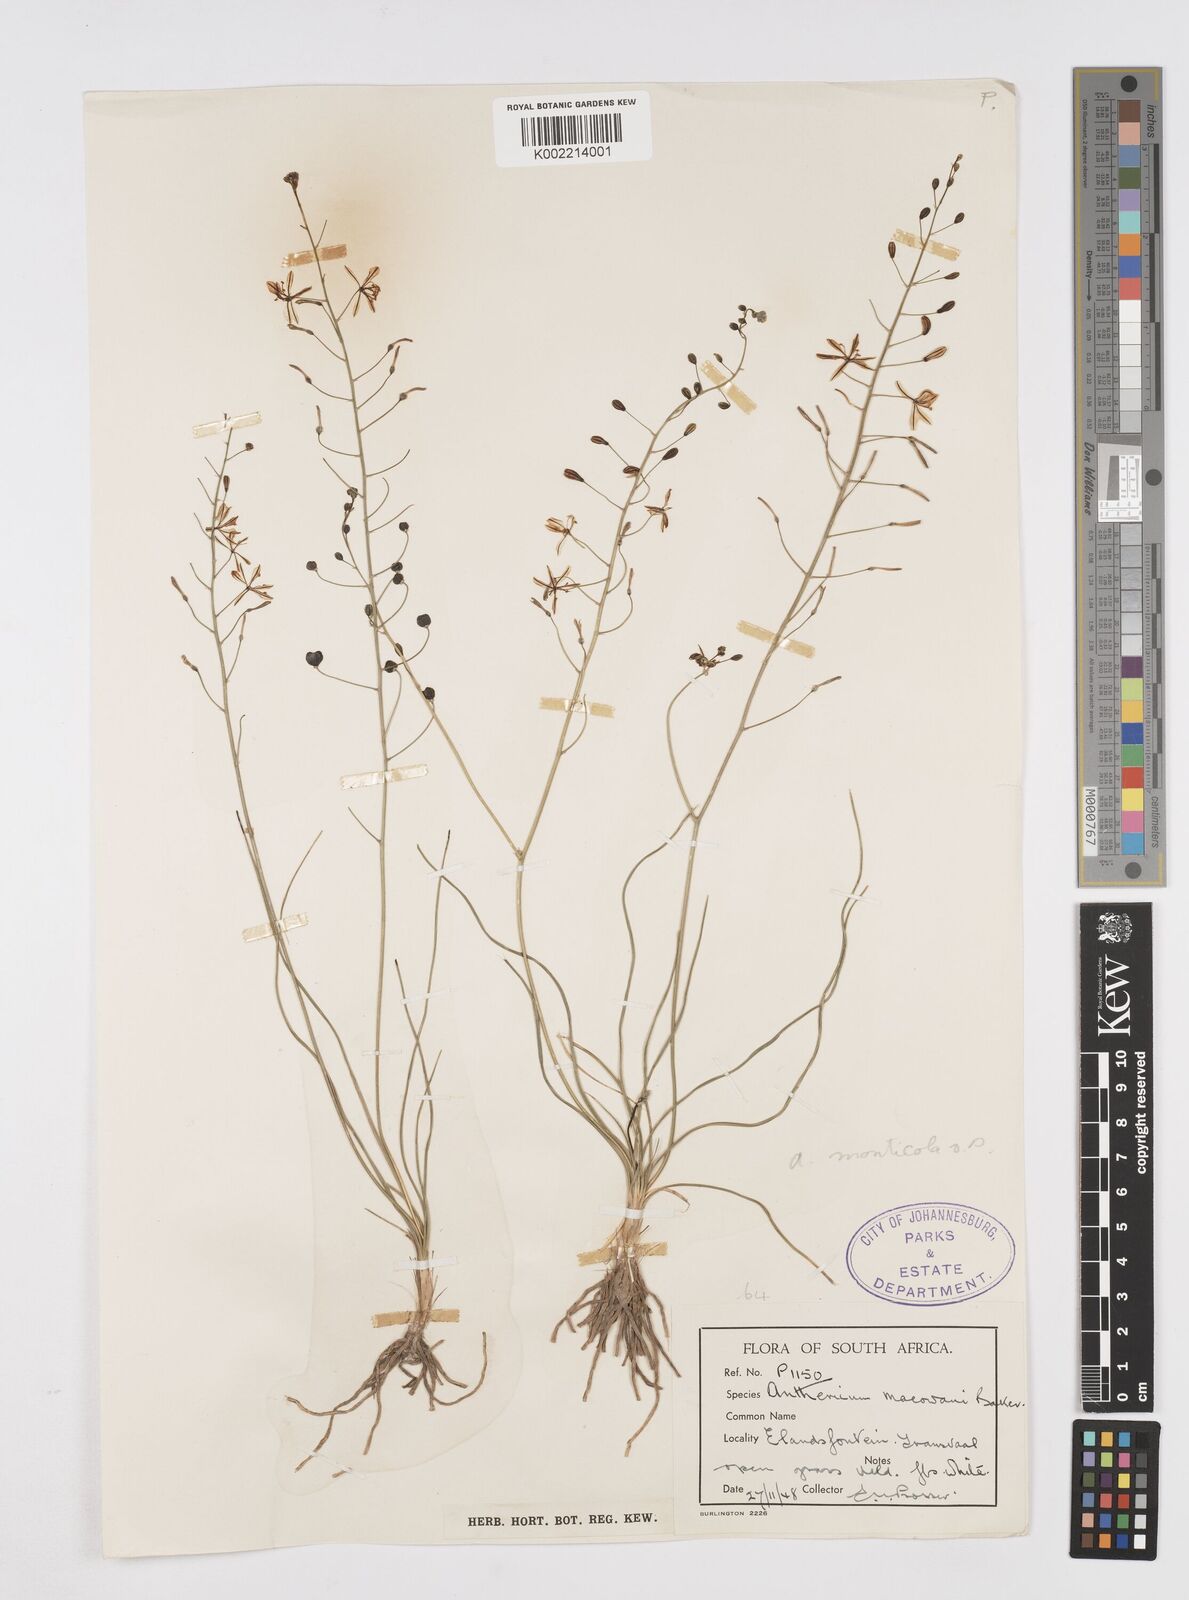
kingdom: Plantae
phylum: Tracheophyta
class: Liliopsida
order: Asparagales
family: Asphodelaceae
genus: Trachyandra
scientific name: Trachyandra asperata
